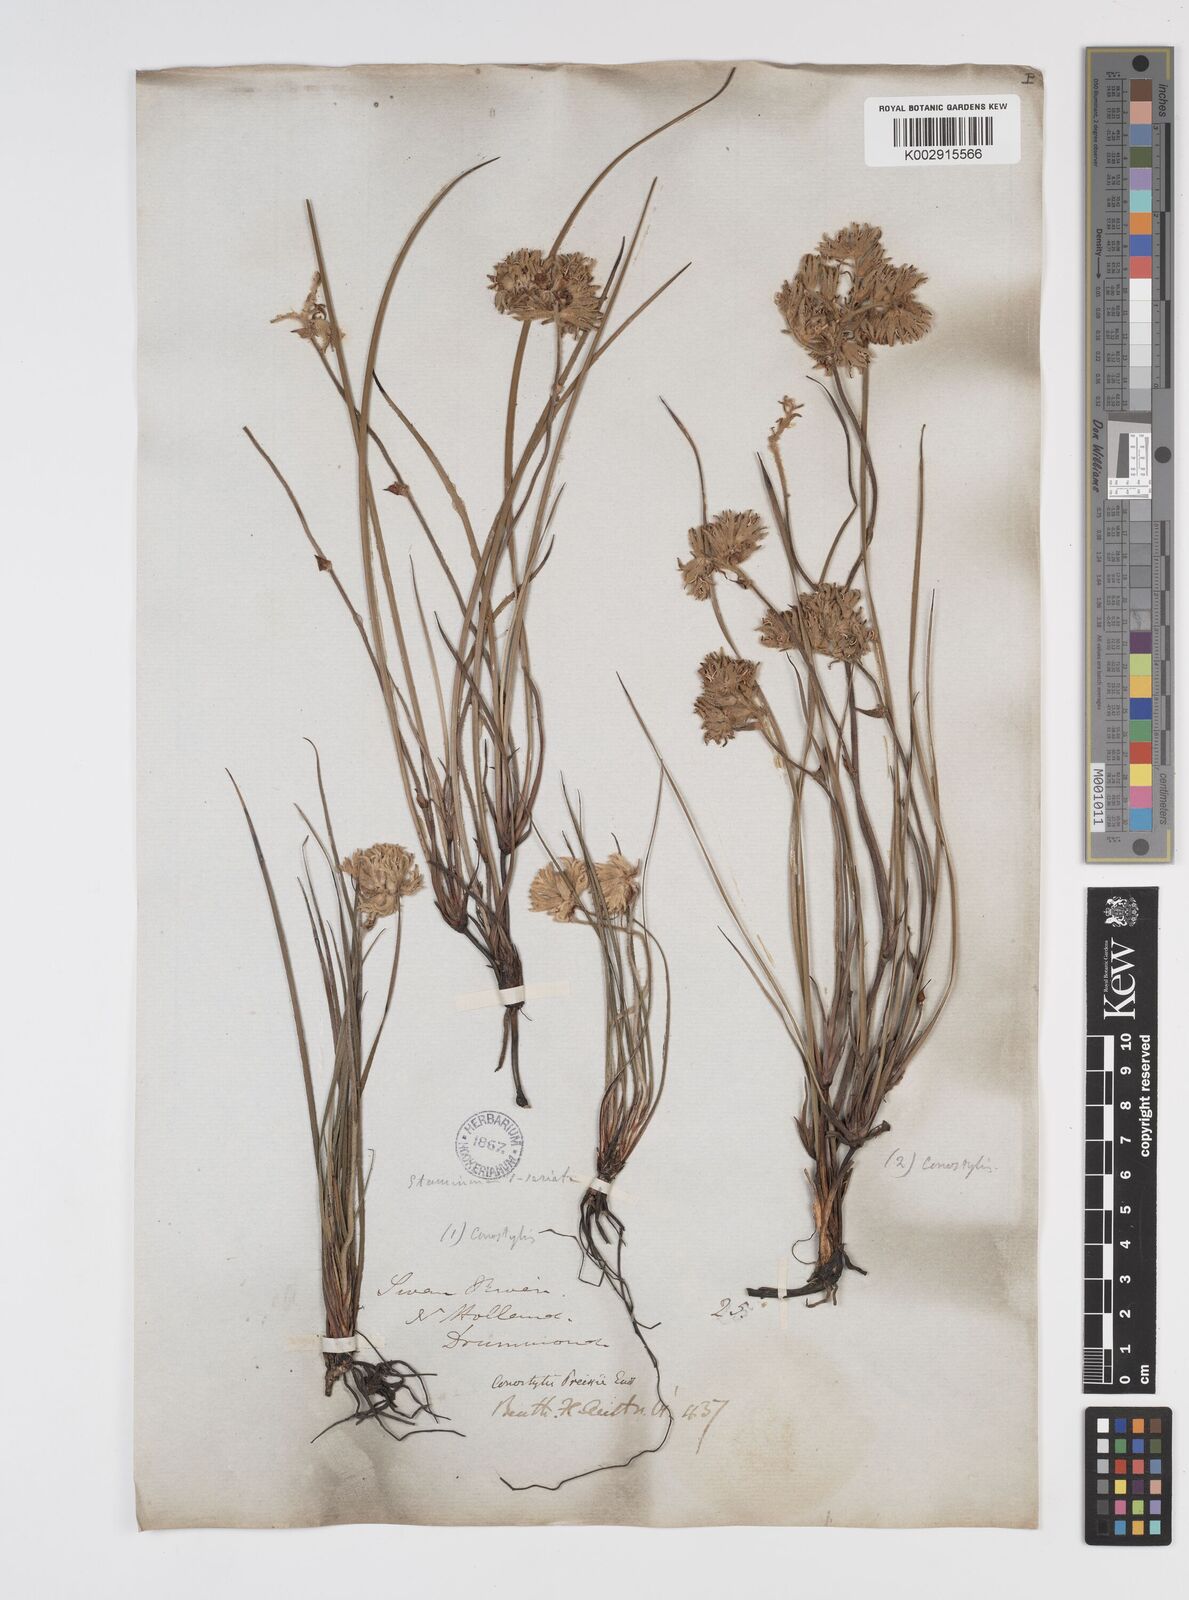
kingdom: Plantae
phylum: Tracheophyta
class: Liliopsida
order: Commelinales
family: Haemodoraceae
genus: Conostylis
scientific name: Conostylis aculeata
